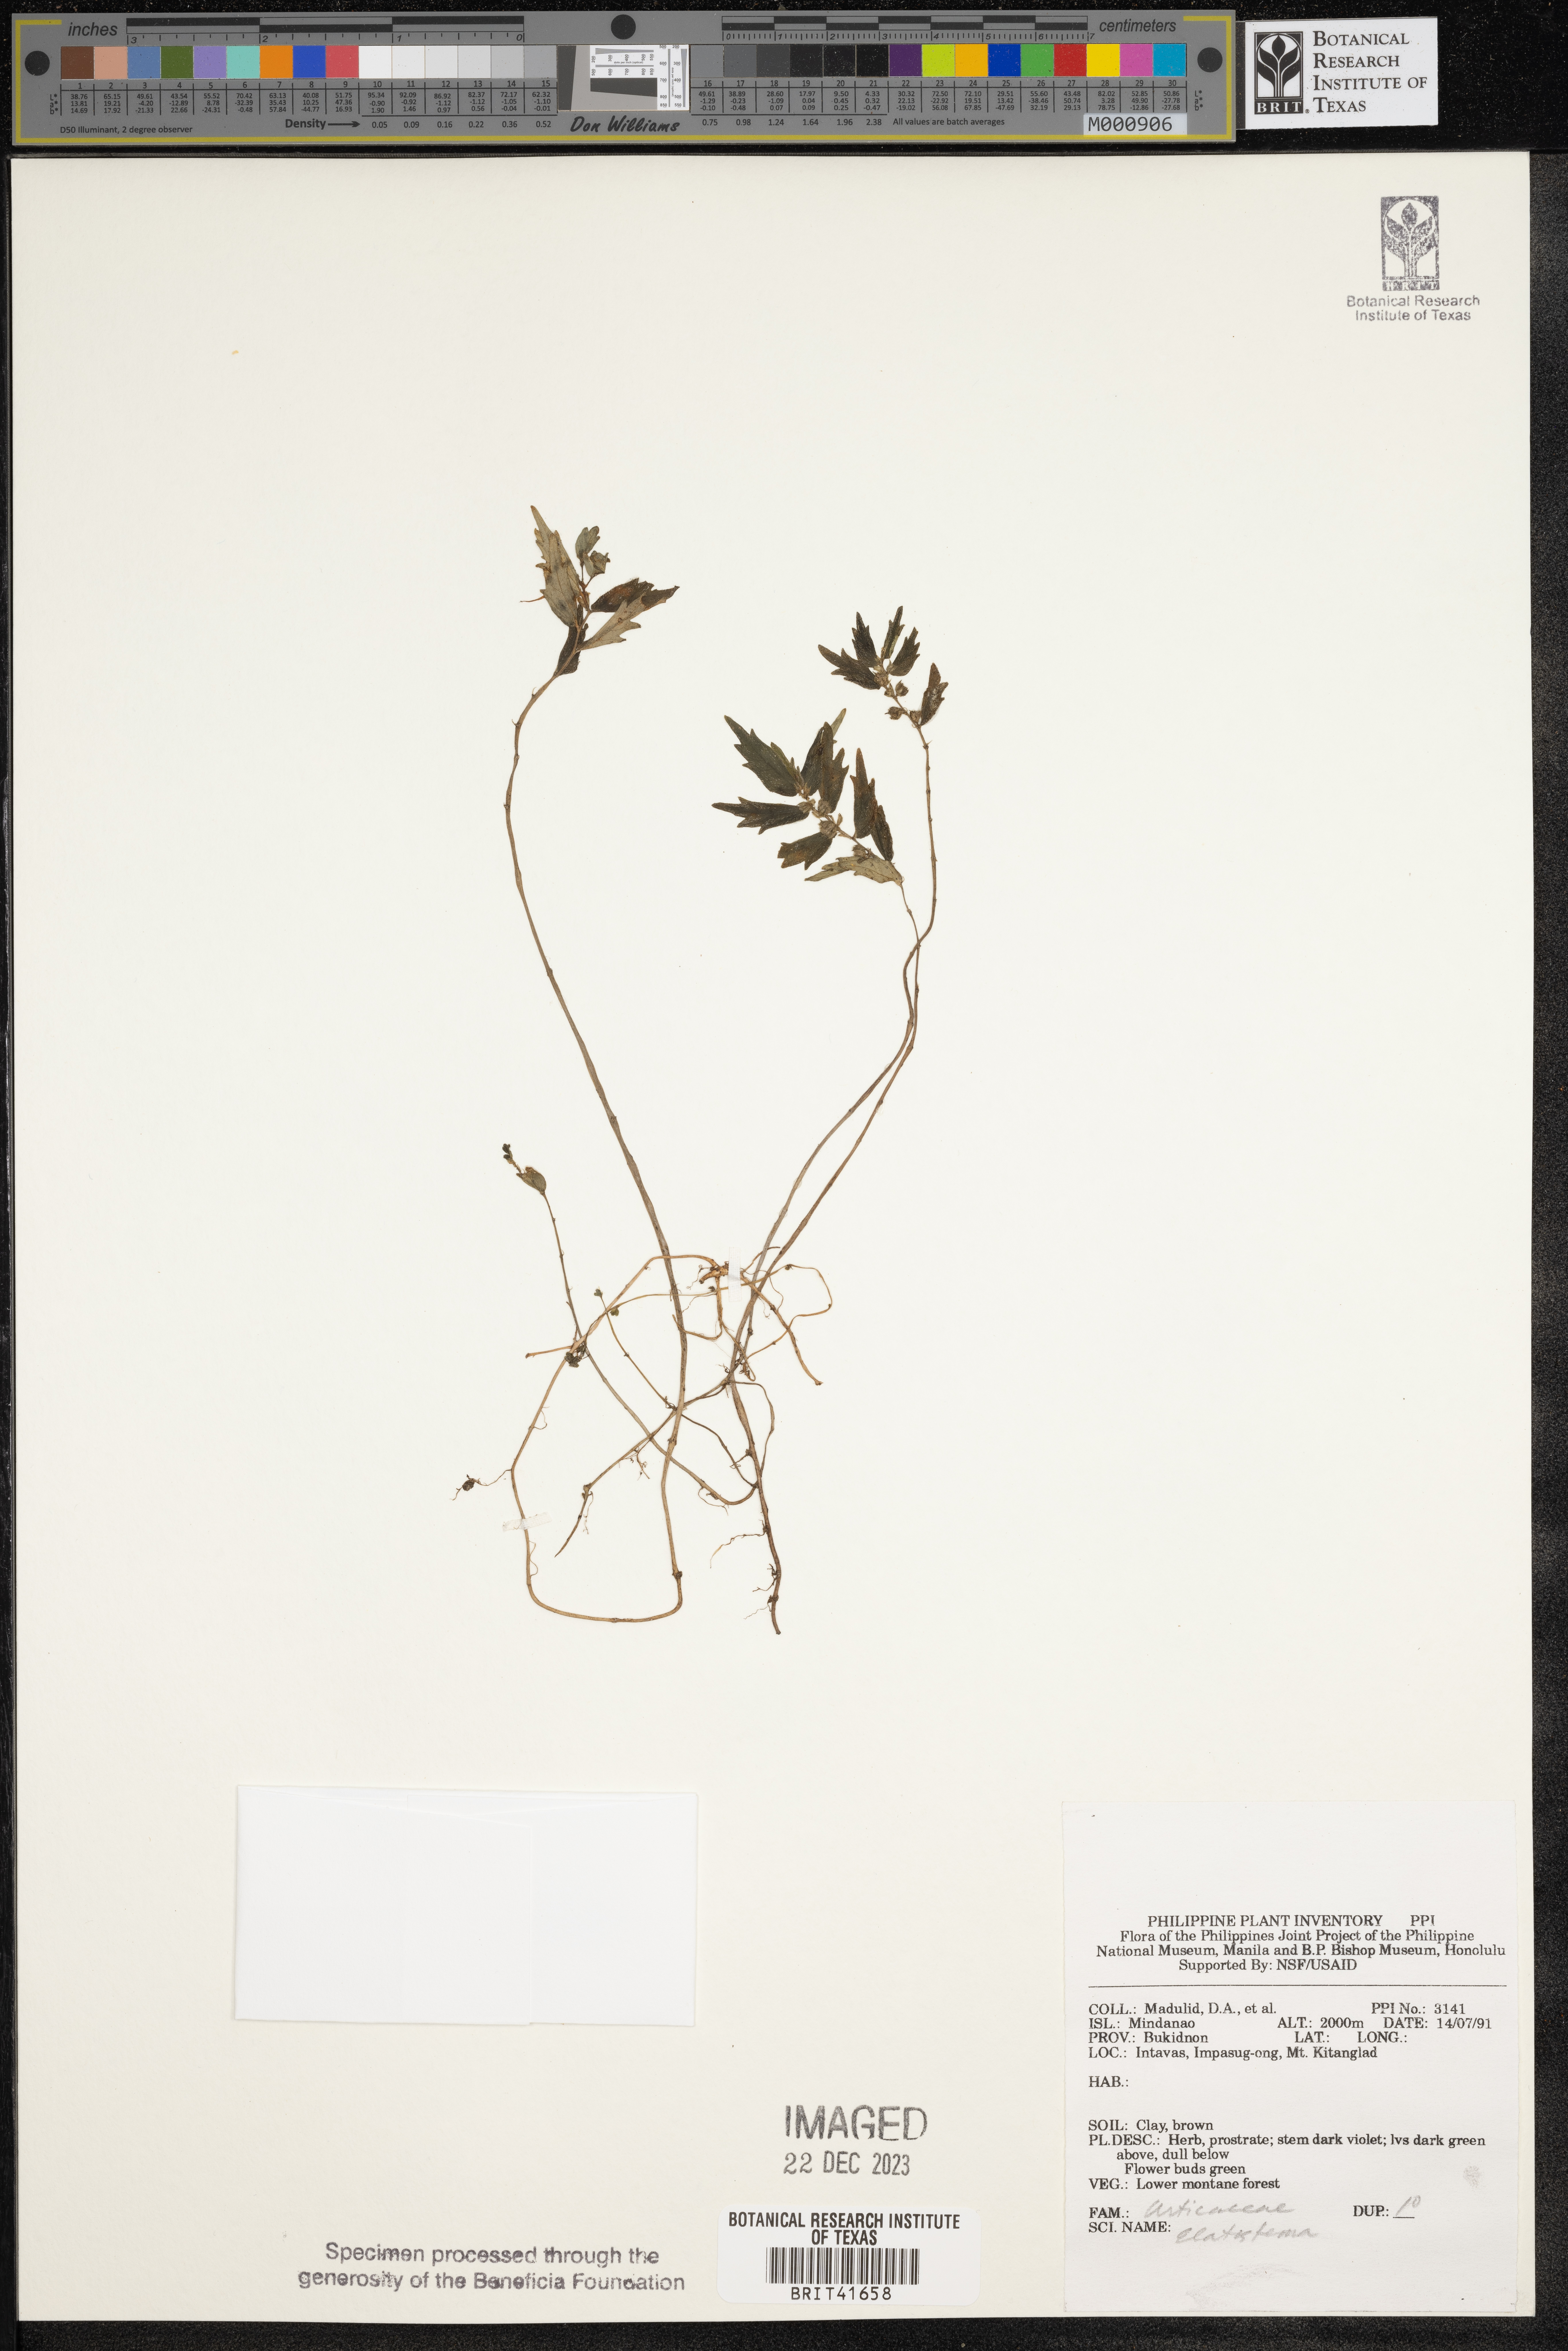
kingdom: Plantae
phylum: Tracheophyta
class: Magnoliopsida
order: Rosales
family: Urticaceae
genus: Elatostema
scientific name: Elatostema
